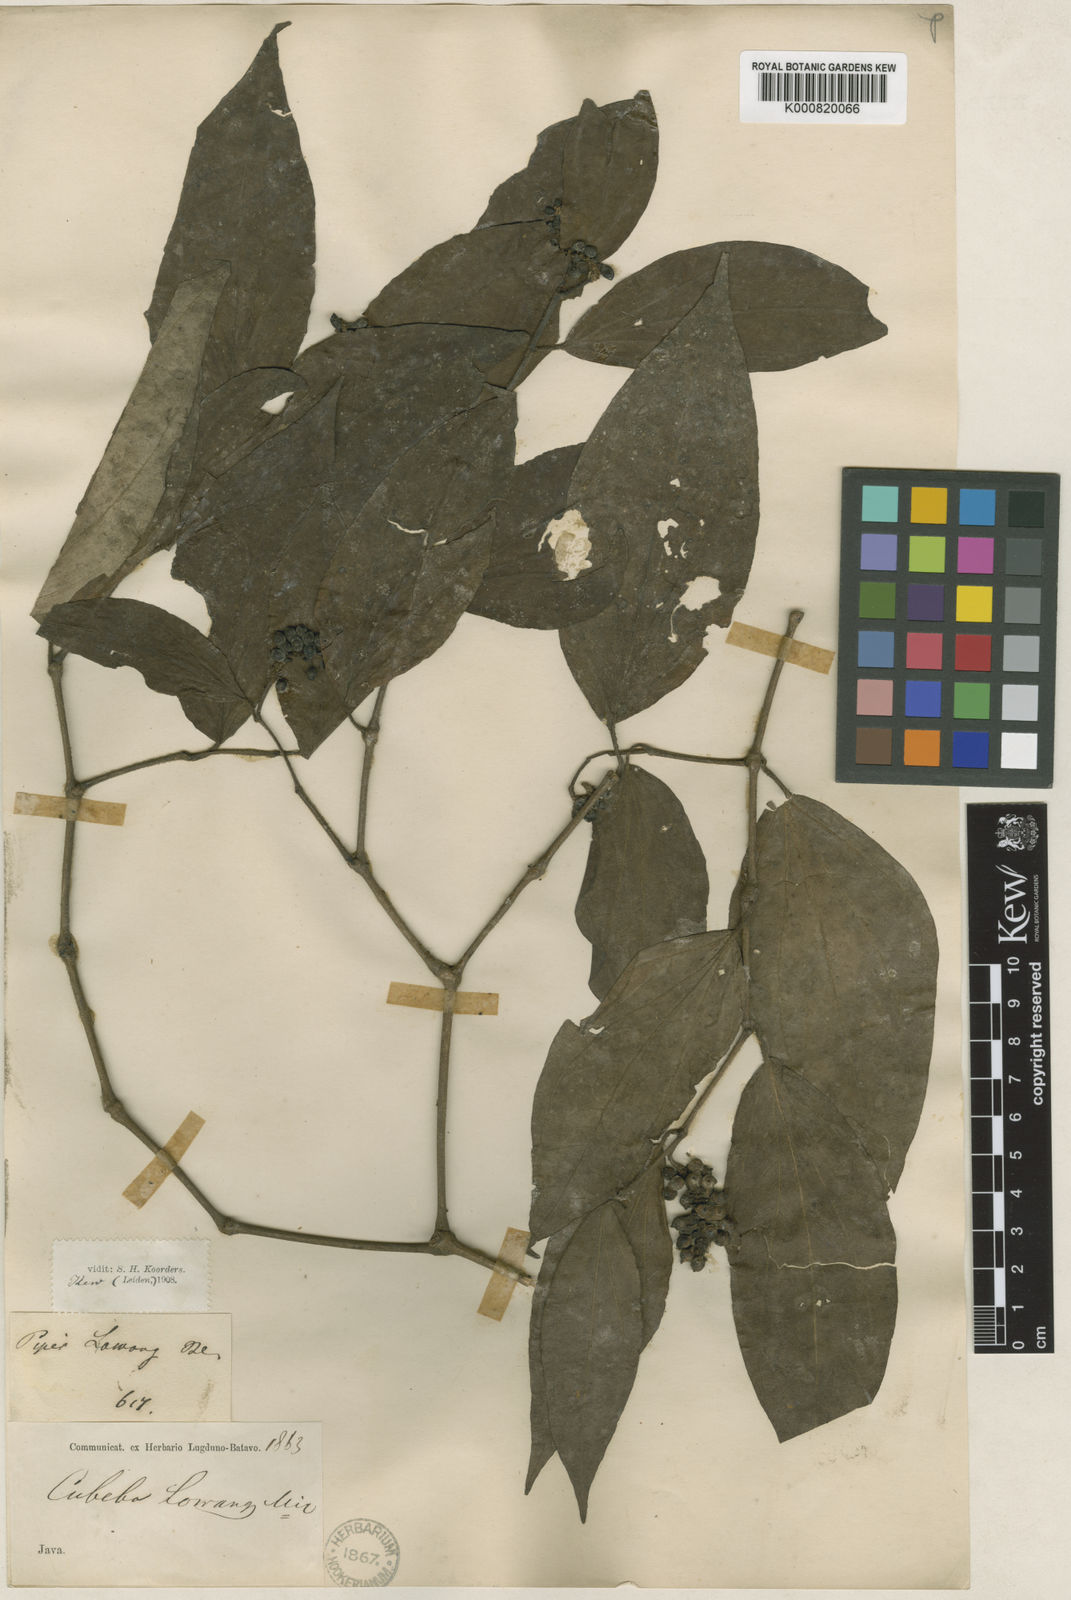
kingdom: Plantae
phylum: Tracheophyta
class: Magnoliopsida
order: Piperales
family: Piperaceae
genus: Piper
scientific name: Piper lanatum
